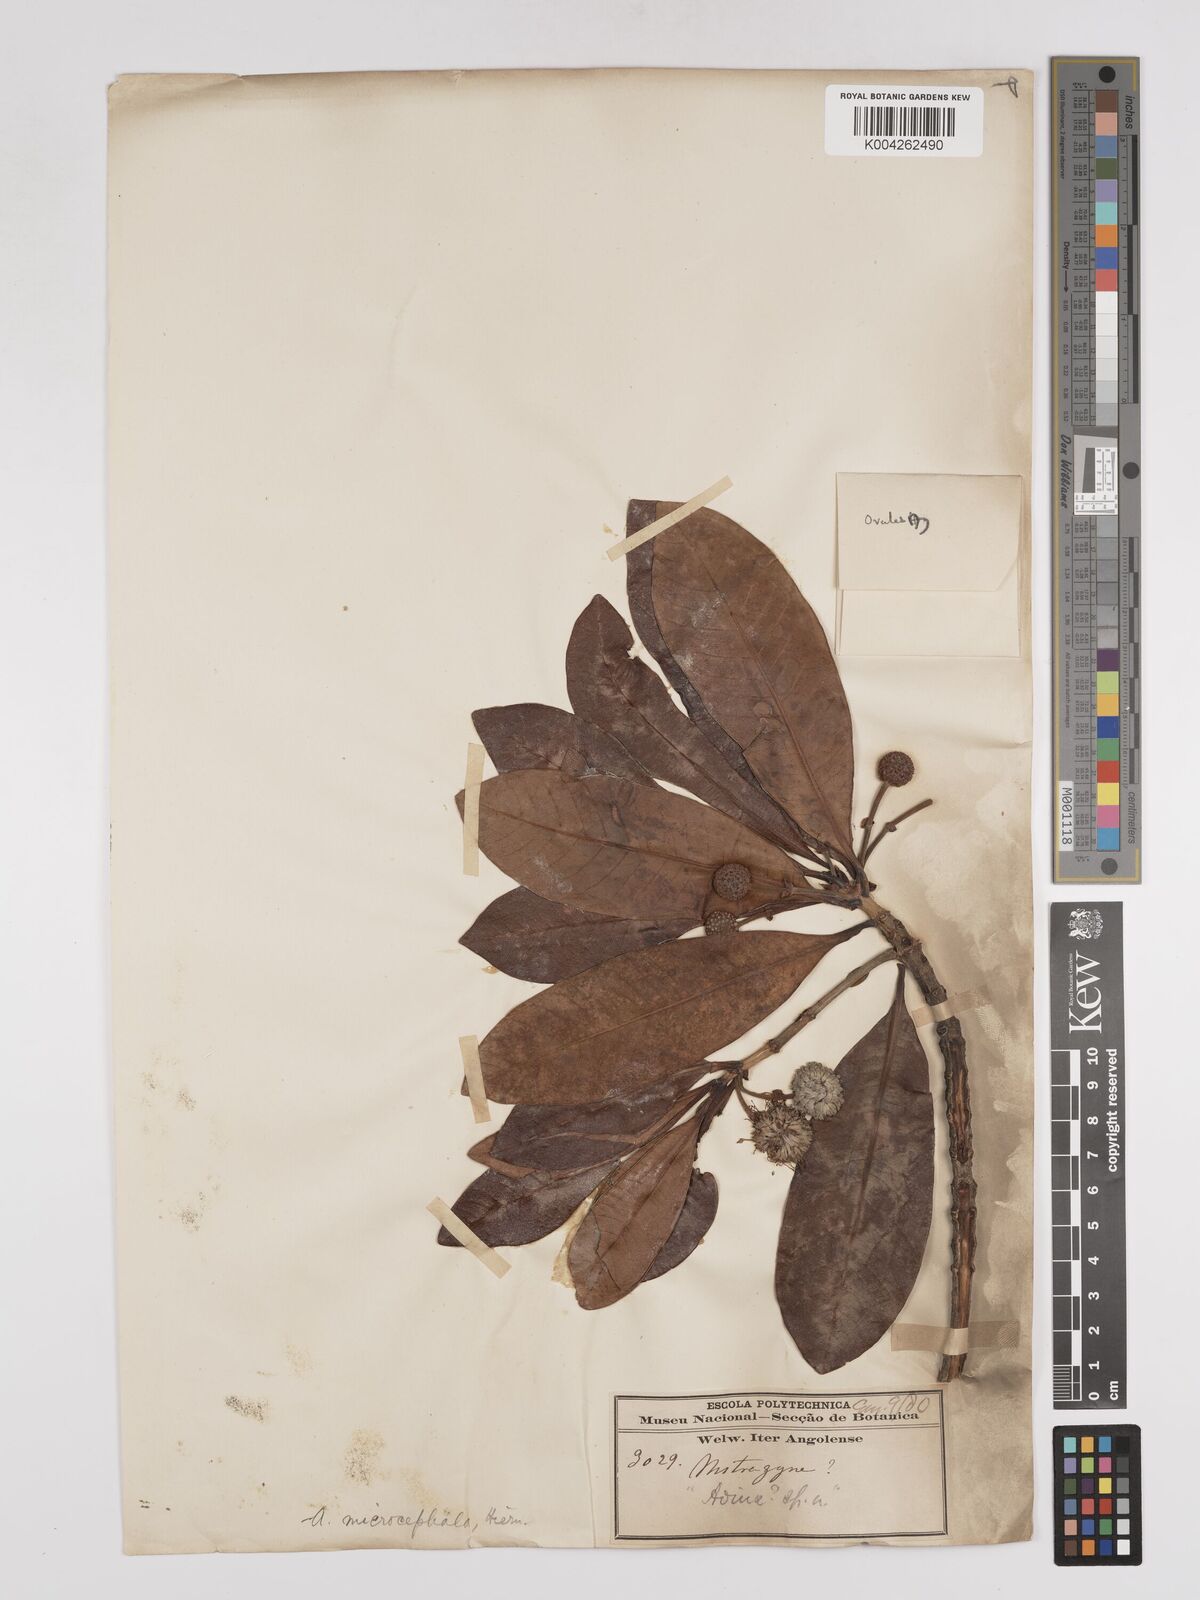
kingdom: Plantae
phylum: Tracheophyta
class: Magnoliopsida
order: Gentianales
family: Rubiaceae
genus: Breonadia
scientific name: Breonadia salicina
